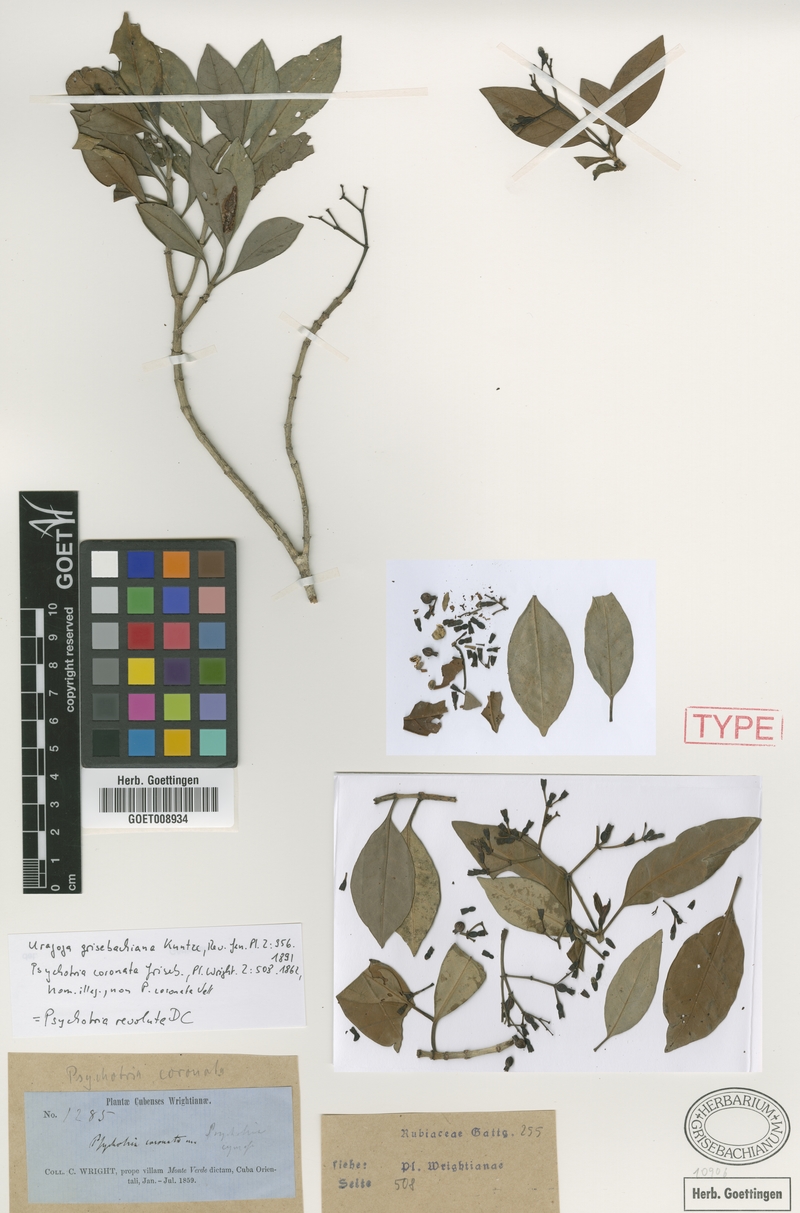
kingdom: Plantae
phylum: Tracheophyta
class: Magnoliopsida
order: Gentianales
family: Rubiaceae
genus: Psychotria
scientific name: Psychotria revoluta
